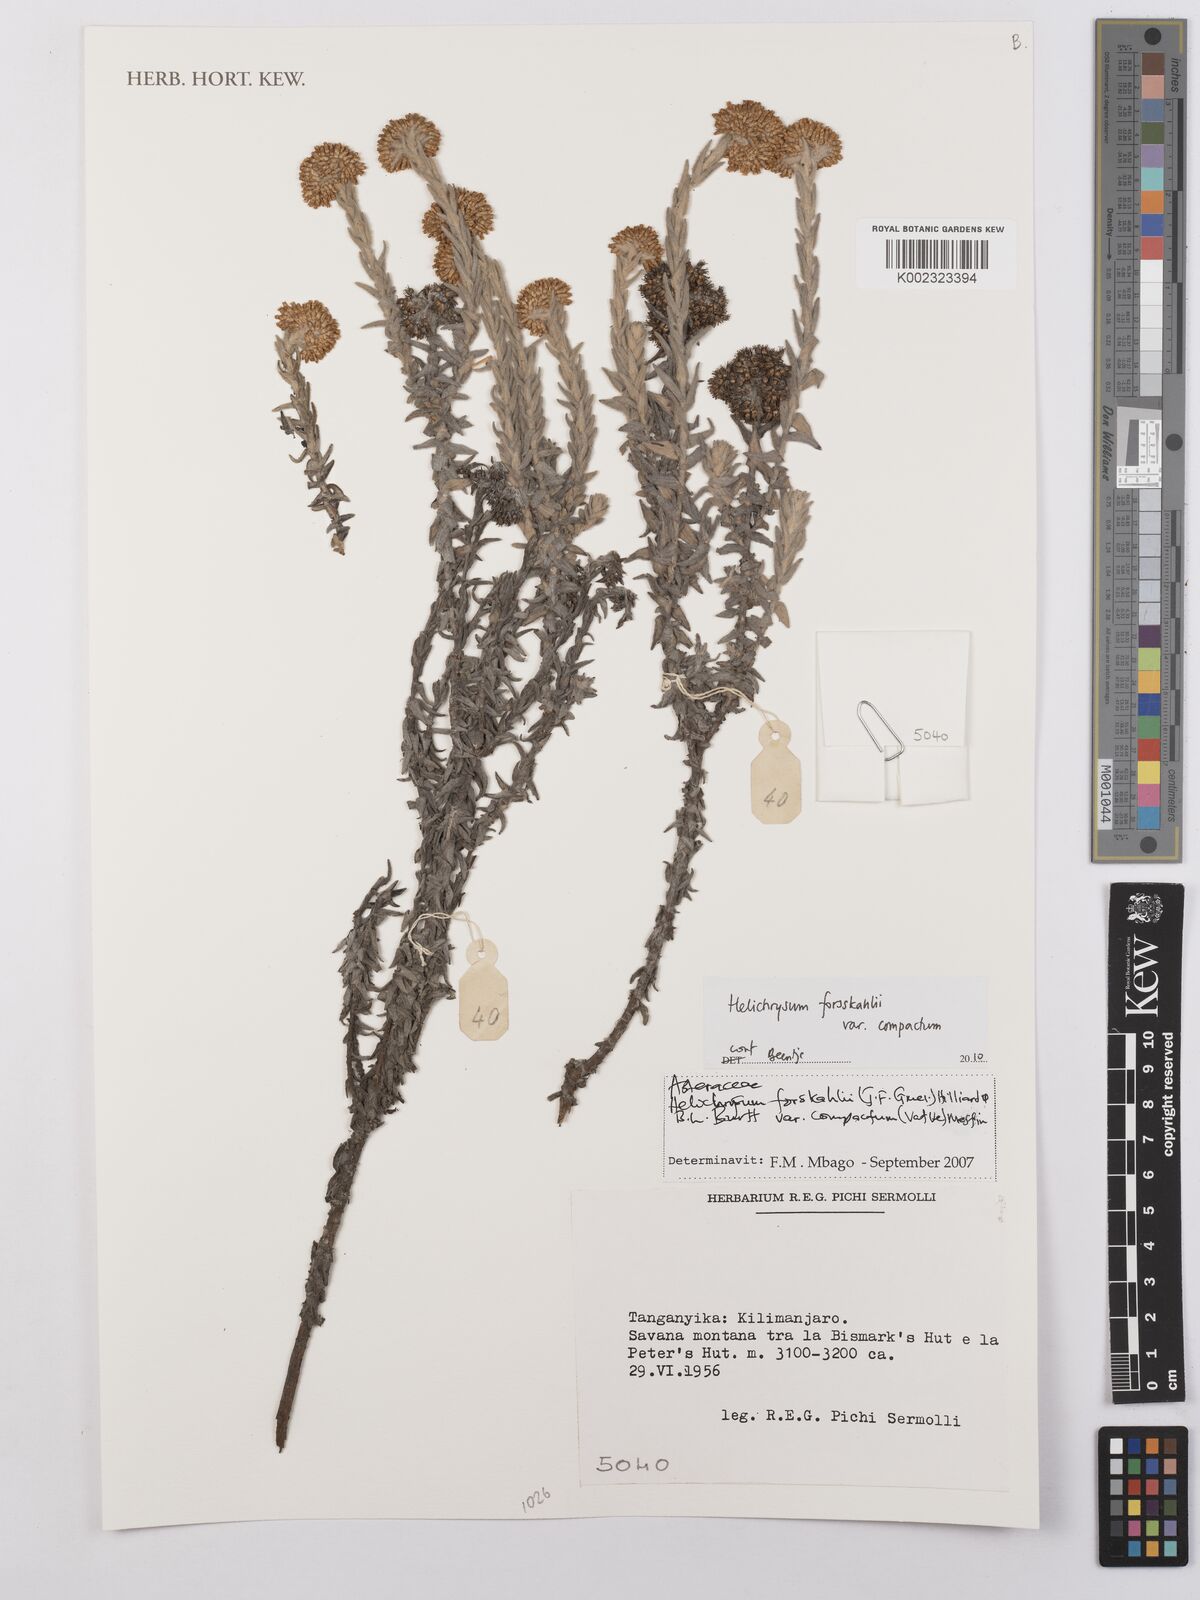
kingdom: Plantae
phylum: Tracheophyta
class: Magnoliopsida
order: Asterales
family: Asteraceae
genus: Helichrysum
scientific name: Helichrysum forskahlii
